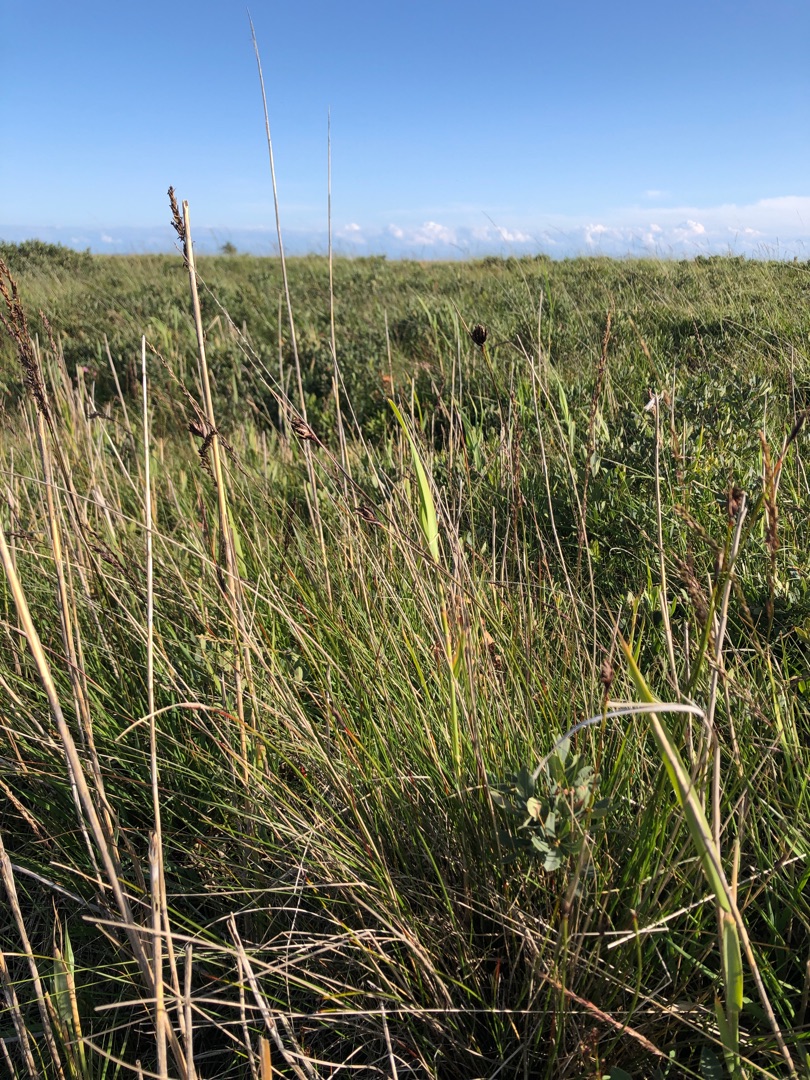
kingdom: Plantae
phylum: Tracheophyta
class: Liliopsida
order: Poales
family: Cyperaceae
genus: Schoenus
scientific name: Schoenus nigricans
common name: Sort skæne
